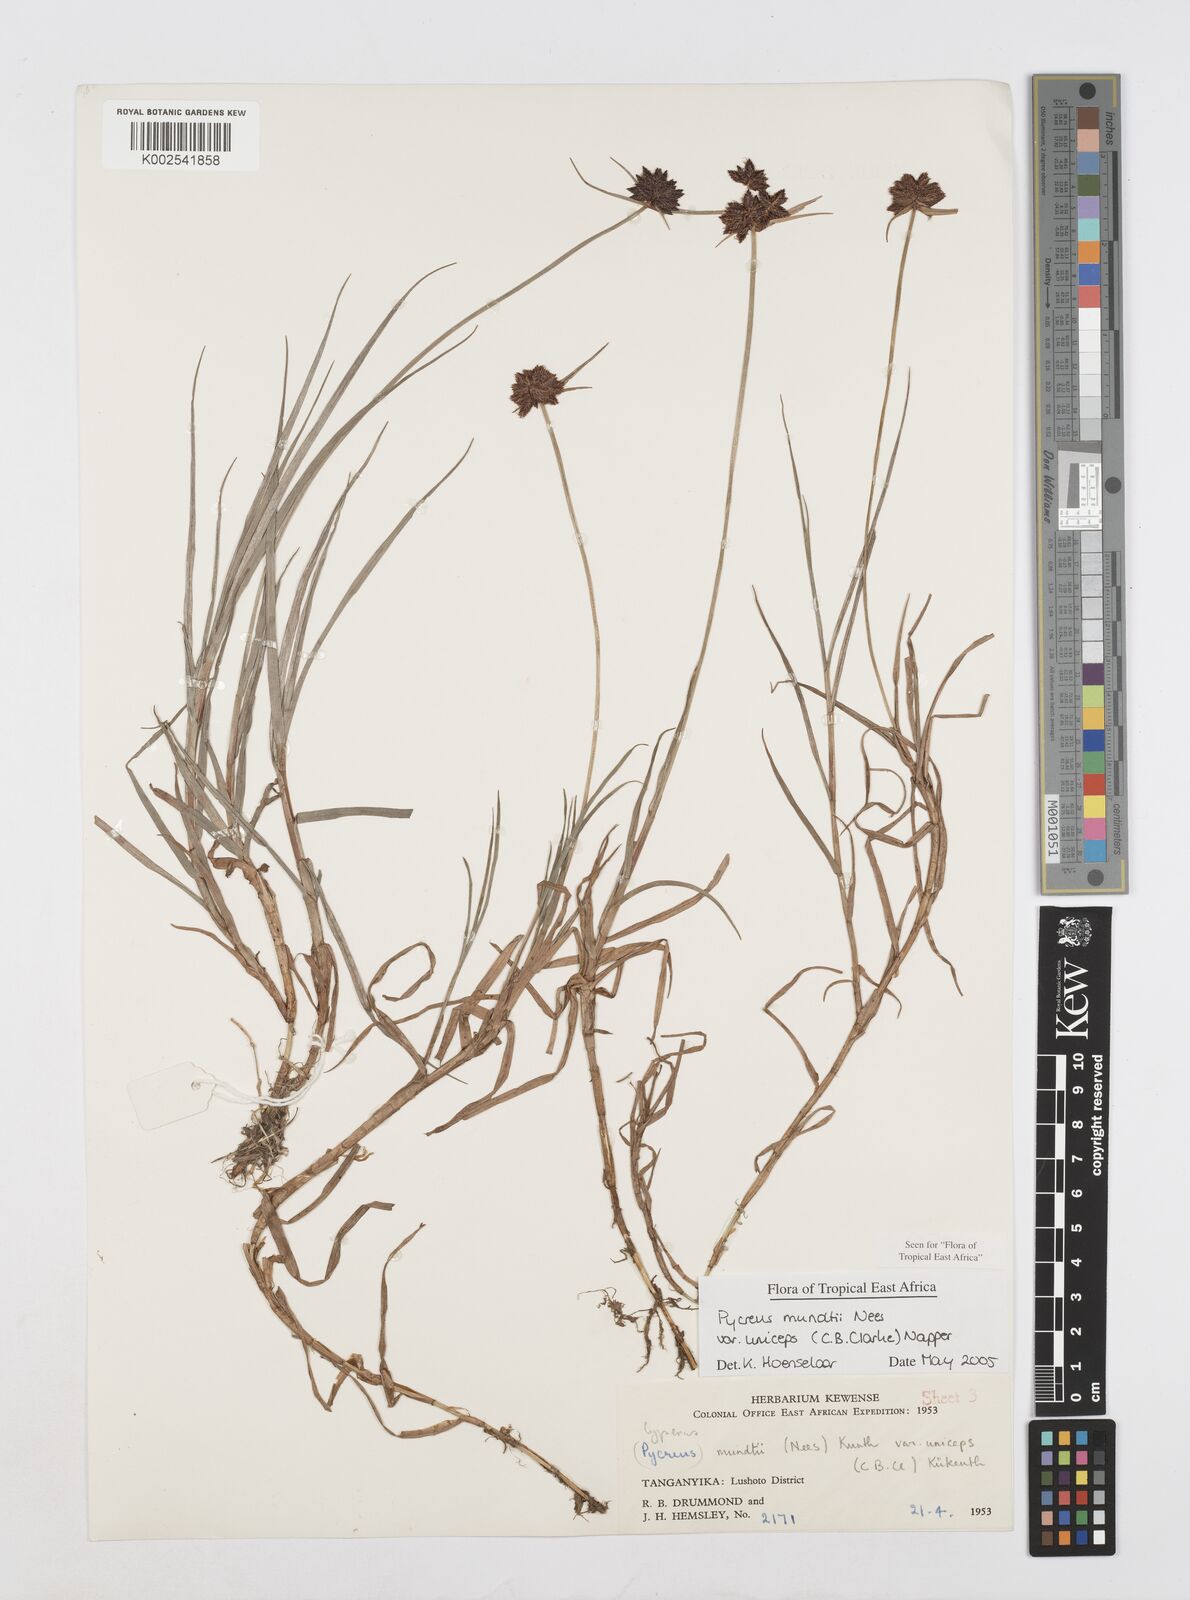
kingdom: Plantae
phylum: Tracheophyta
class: Liliopsida
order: Poales
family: Cyperaceae
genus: Cyperus
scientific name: Cyperus mundii
